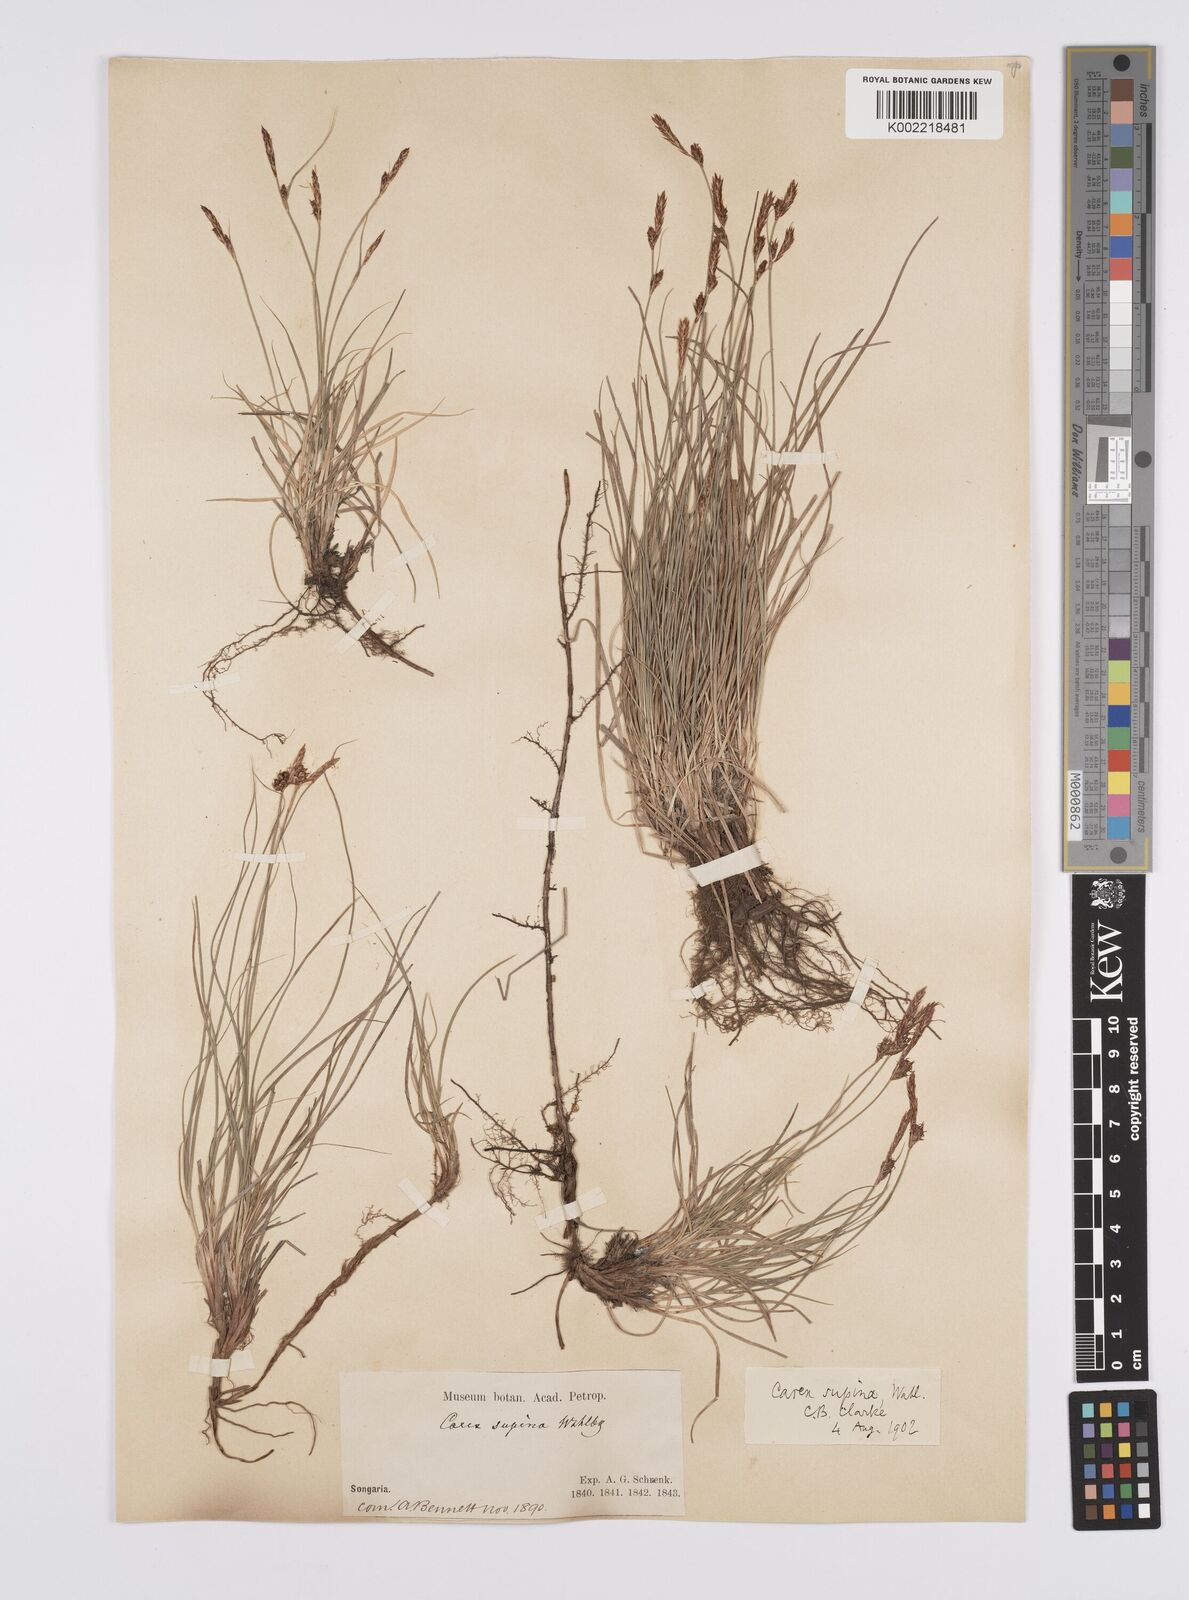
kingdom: Plantae
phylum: Tracheophyta
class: Liliopsida
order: Poales
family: Cyperaceae
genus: Carex
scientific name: Carex supina
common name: Lying-back sedge
